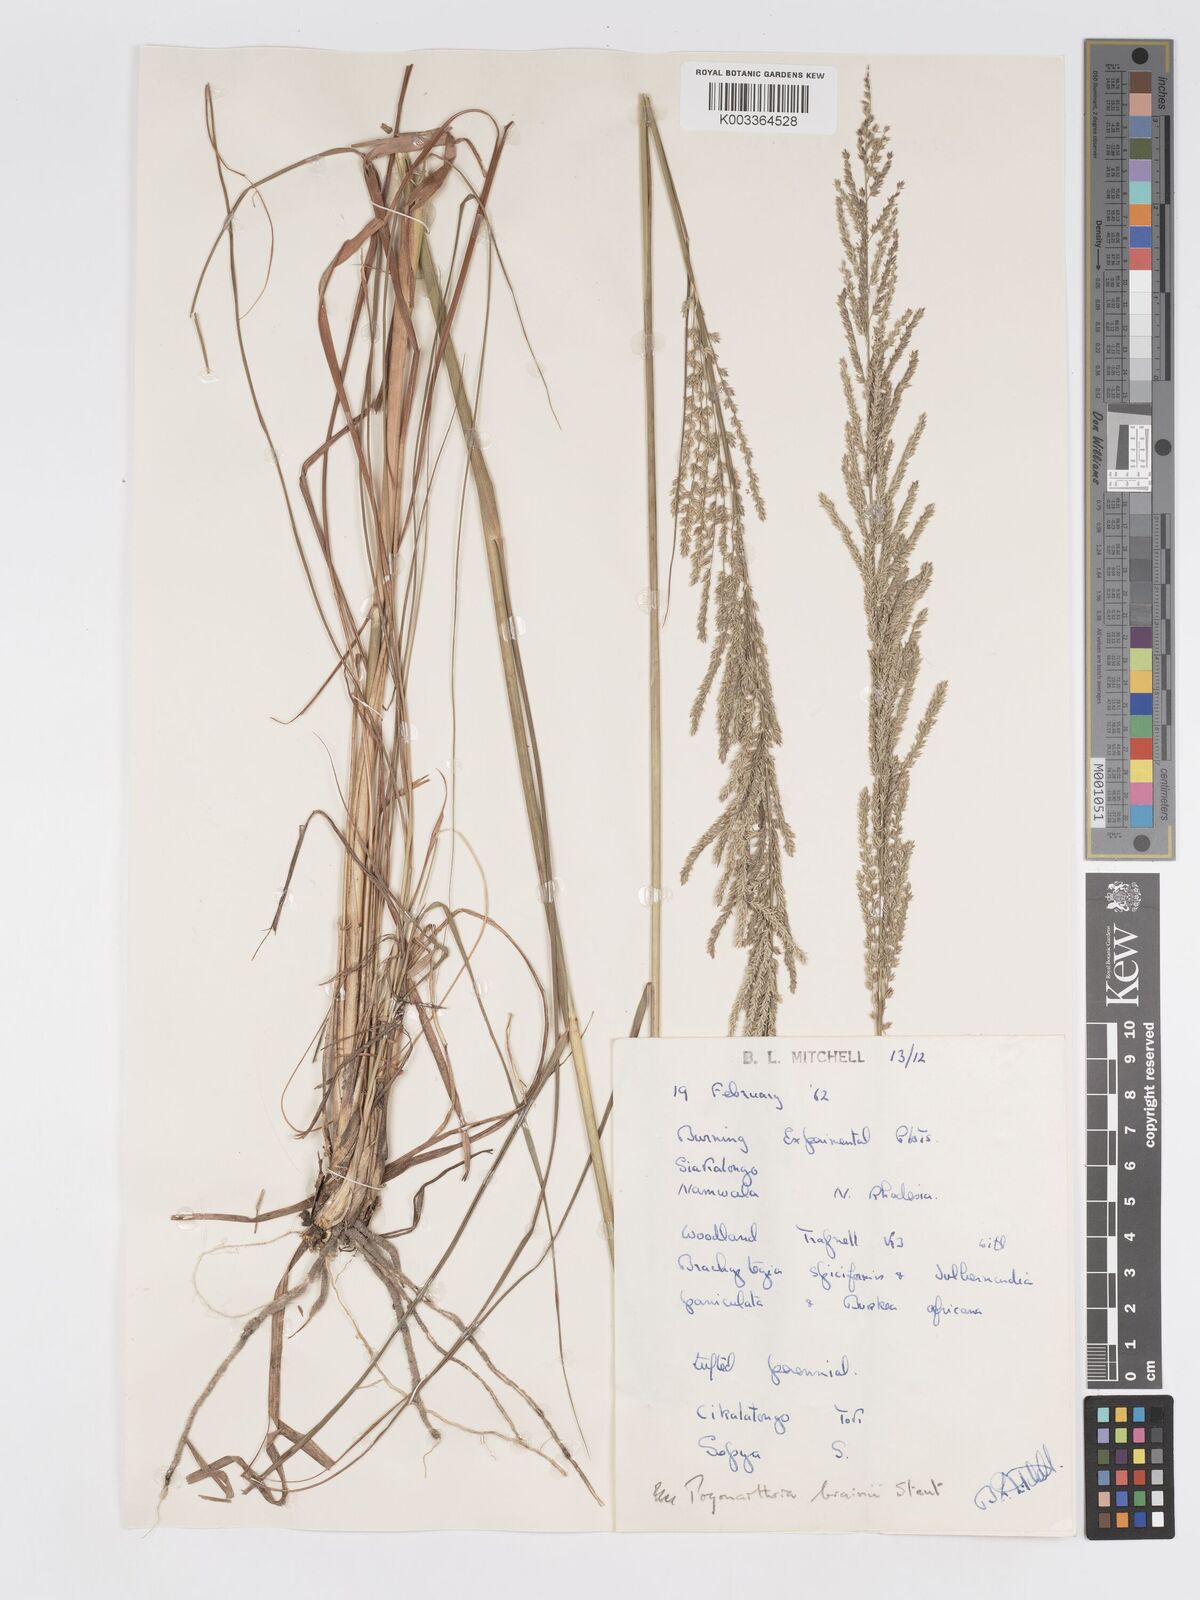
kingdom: Plantae
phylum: Tracheophyta
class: Liliopsida
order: Poales
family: Poaceae
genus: Eragrostis
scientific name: Eragrostis brainii
